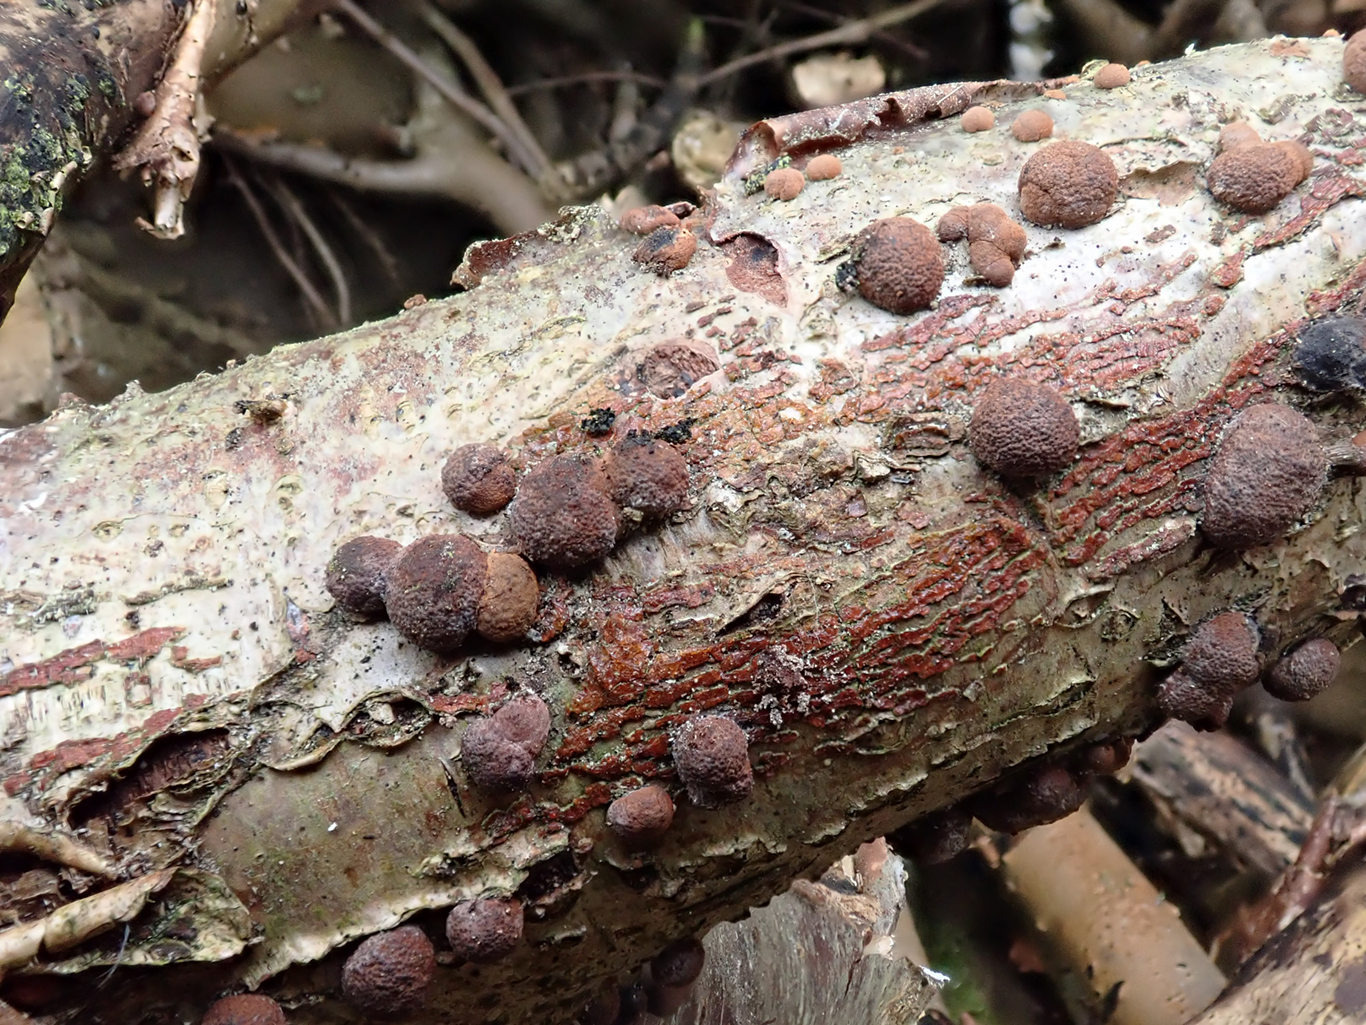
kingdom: Fungi
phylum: Ascomycota
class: Sordariomycetes
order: Xylariales
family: Hypoxylaceae
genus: Hypoxylon
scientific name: Hypoxylon howeanum
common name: halvkugleformet kulbær
